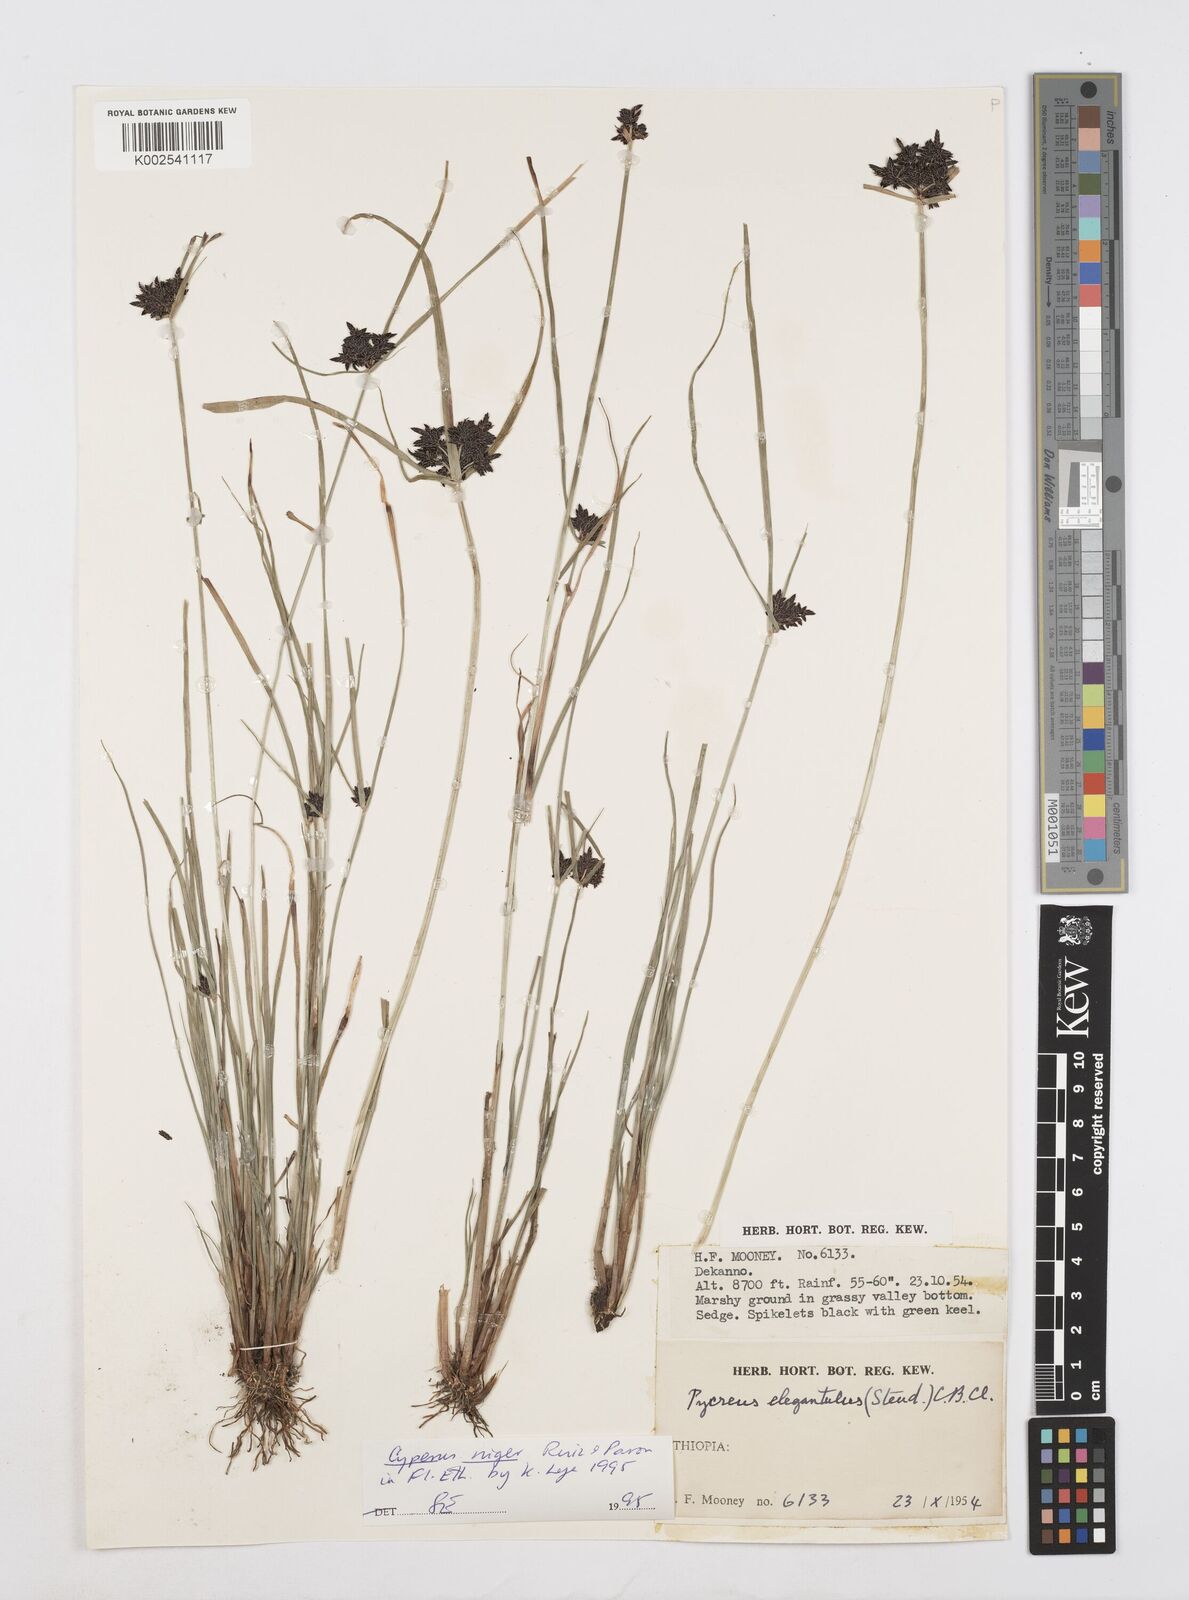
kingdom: Plantae
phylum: Tracheophyta
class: Liliopsida
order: Poales
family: Cyperaceae
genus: Cyperus
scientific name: Cyperus elegantulus
